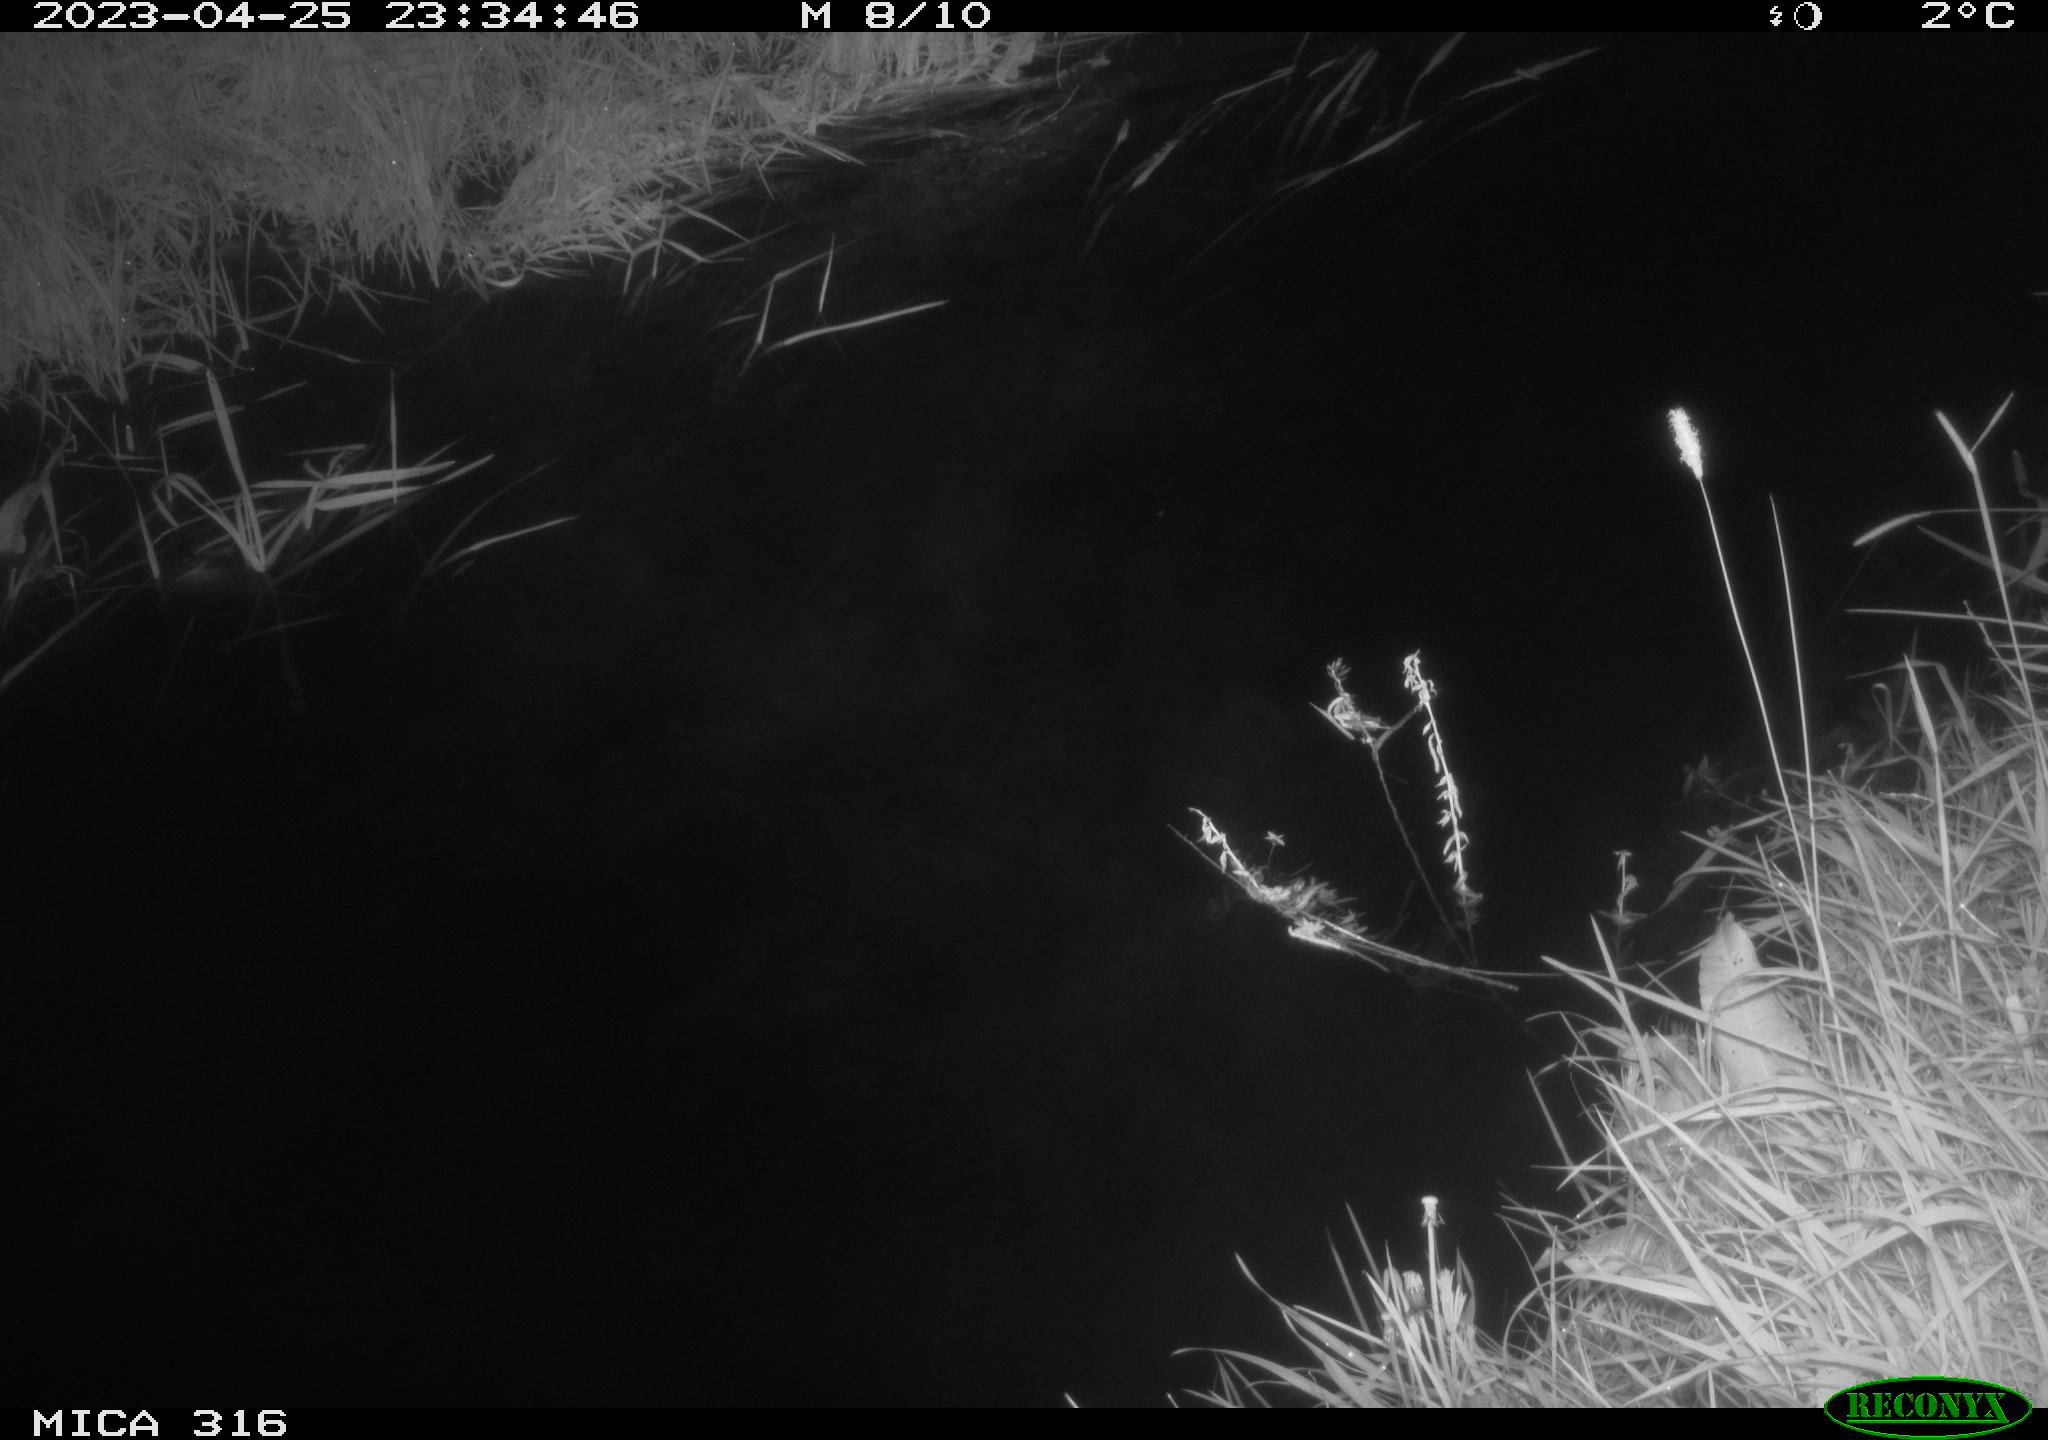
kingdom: Animalia
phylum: Chordata
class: Aves
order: Anseriformes
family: Anatidae
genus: Anas
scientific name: Anas
